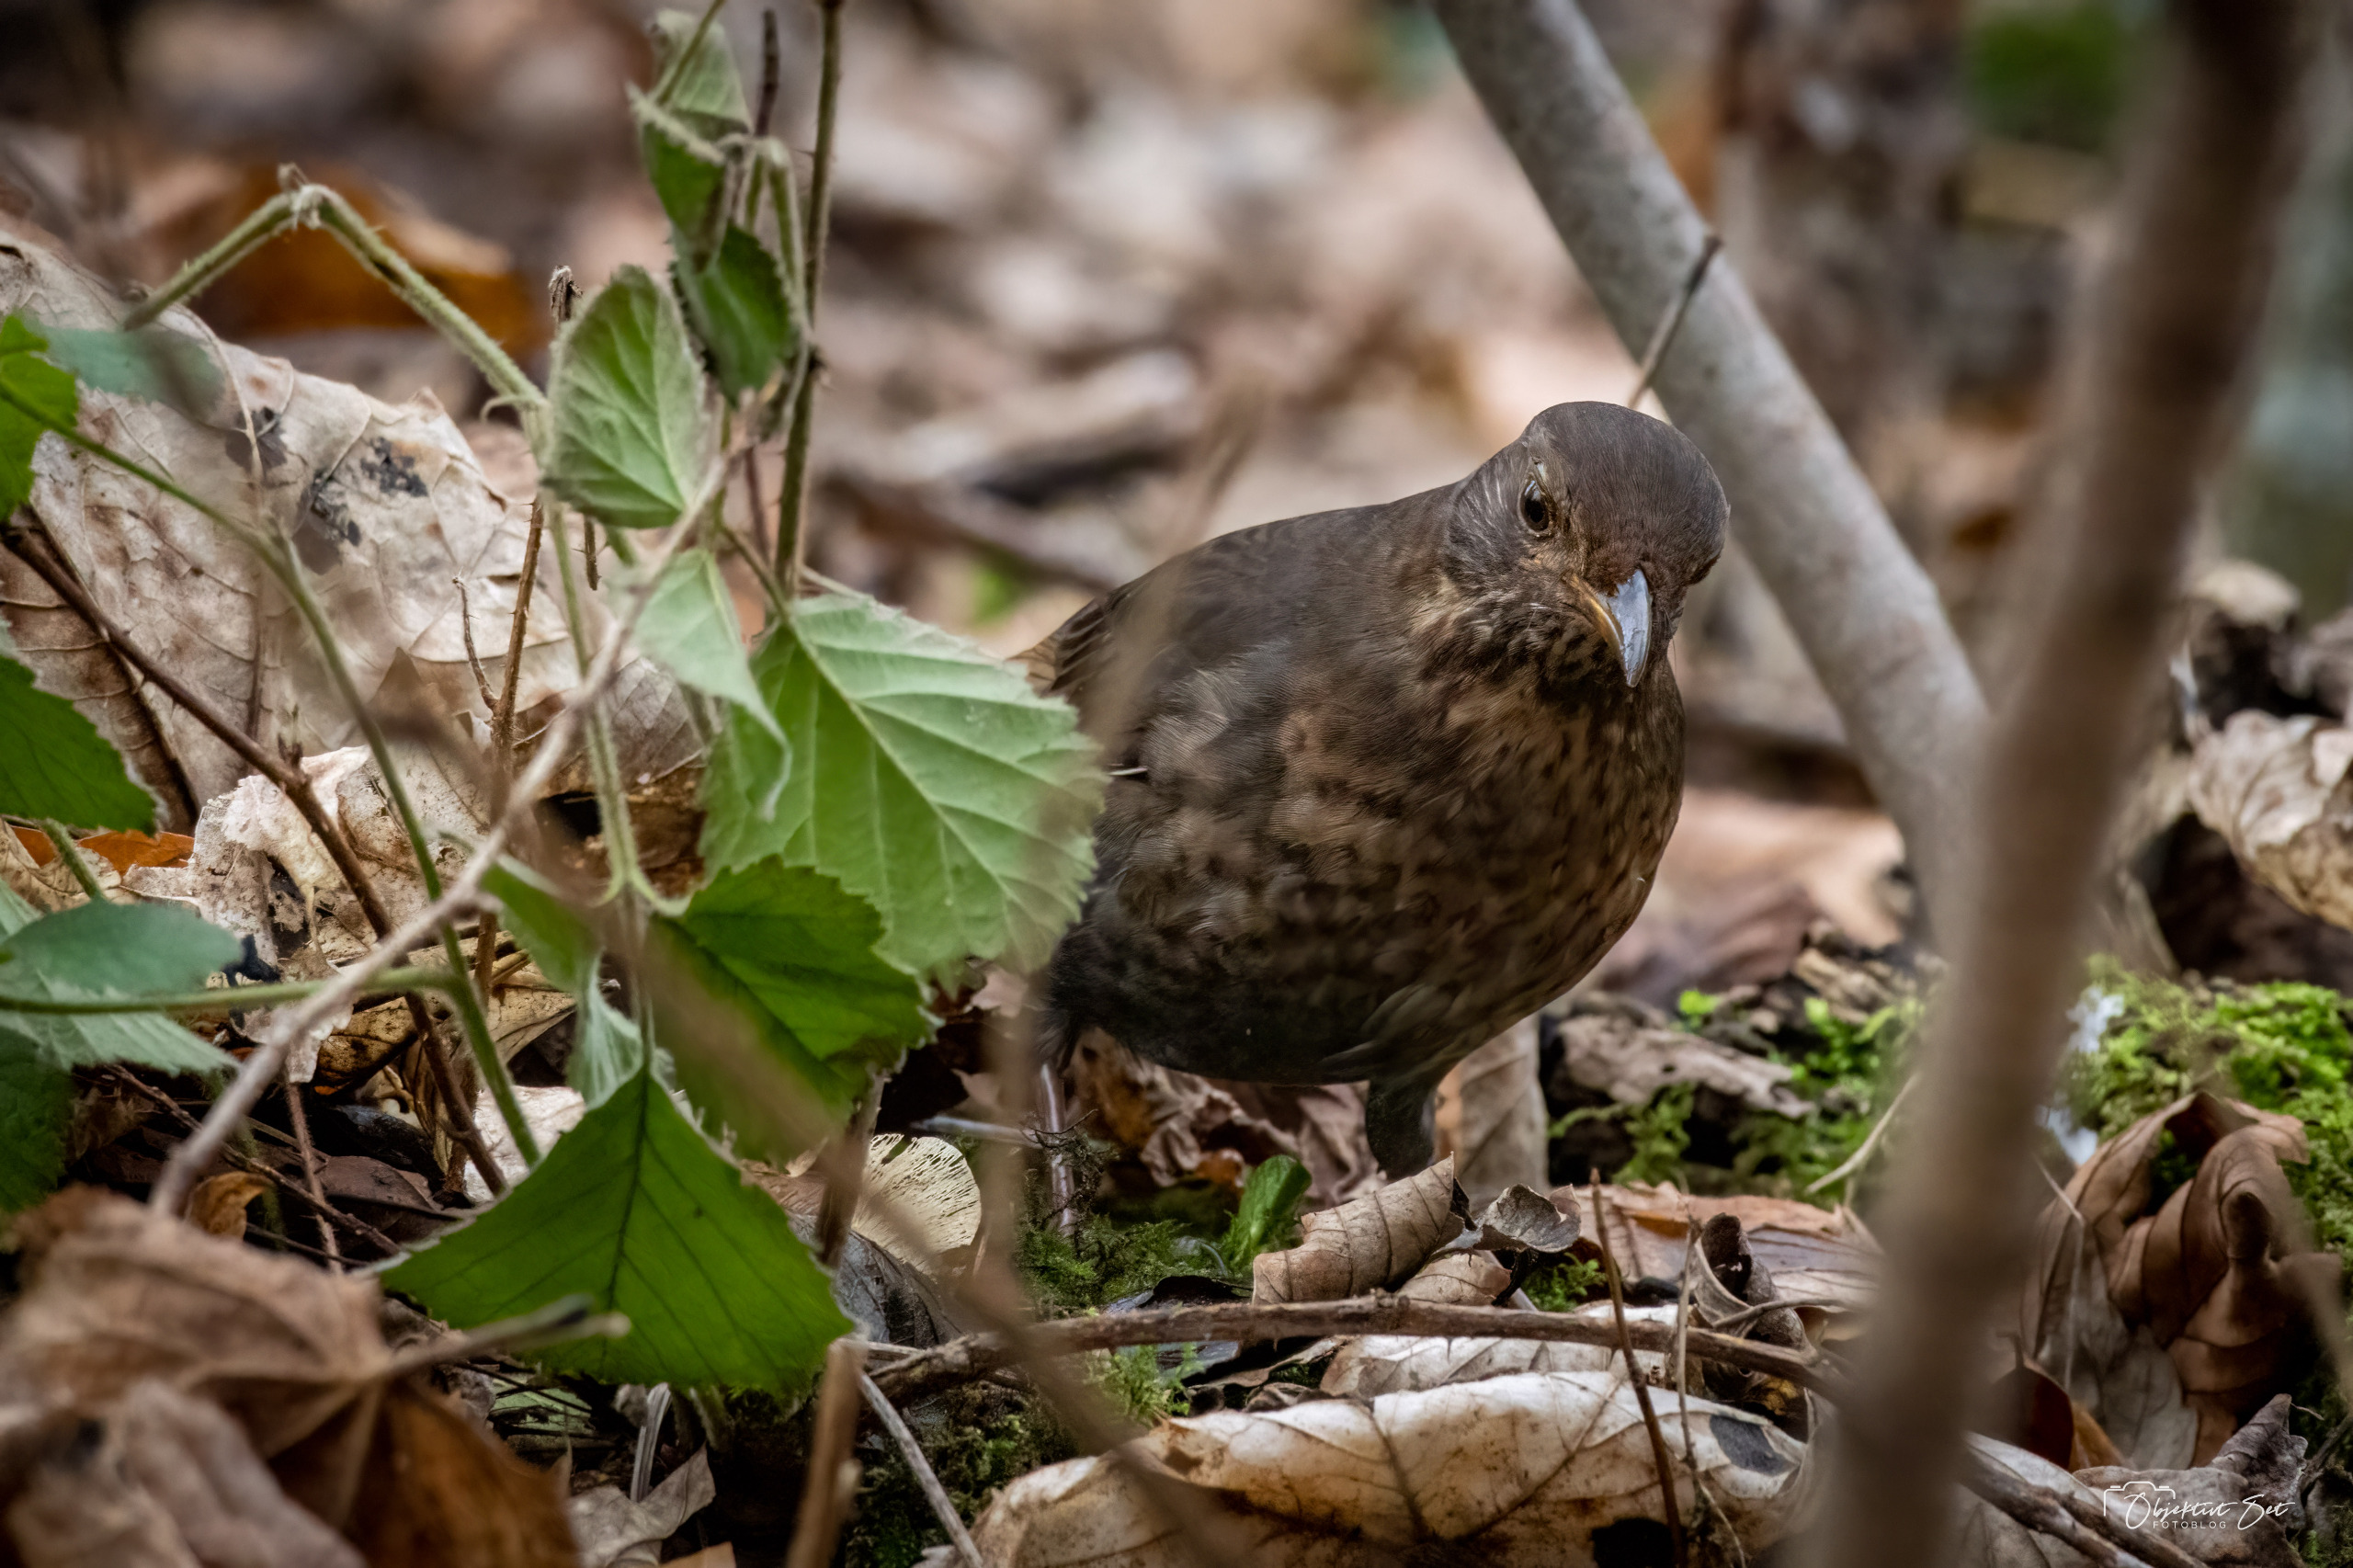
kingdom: Animalia
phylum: Chordata
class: Aves
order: Passeriformes
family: Turdidae
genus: Turdus
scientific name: Turdus merula
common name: Solsort
